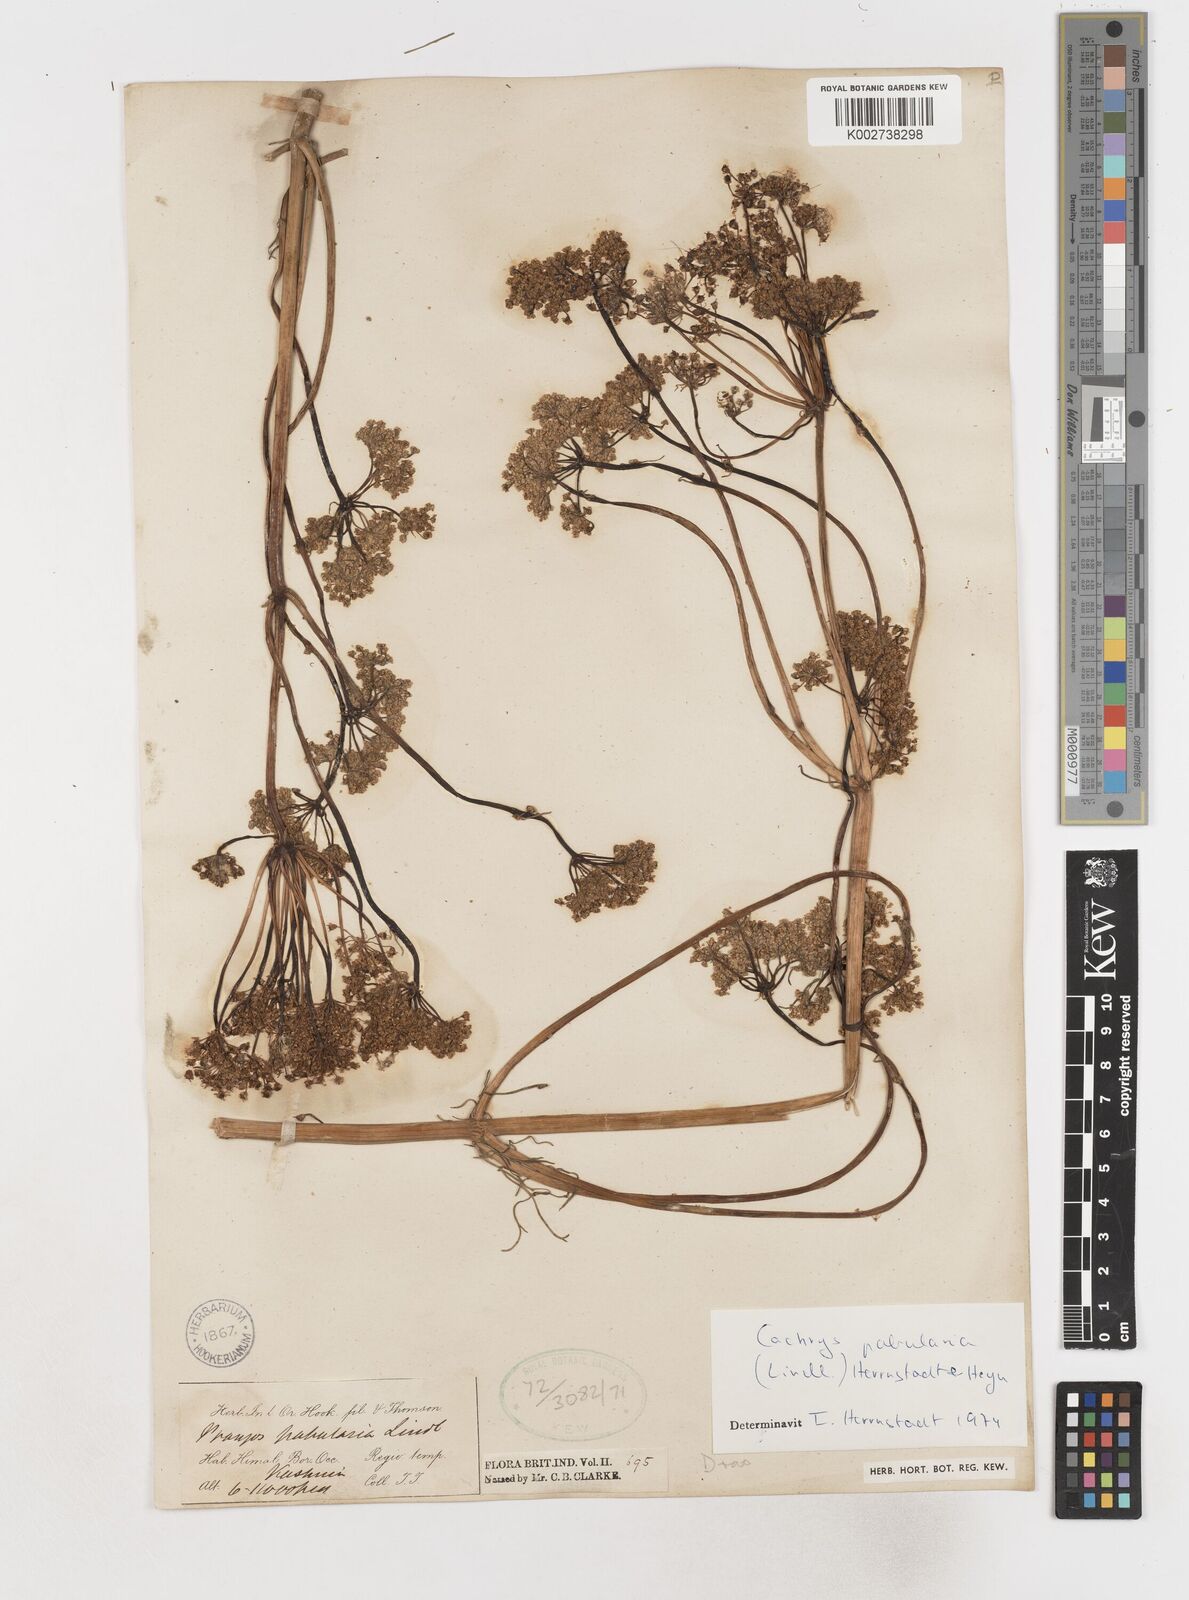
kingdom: Plantae
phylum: Tracheophyta
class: Magnoliopsida
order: Apiales
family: Apiaceae
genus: Prangos
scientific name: Prangos
